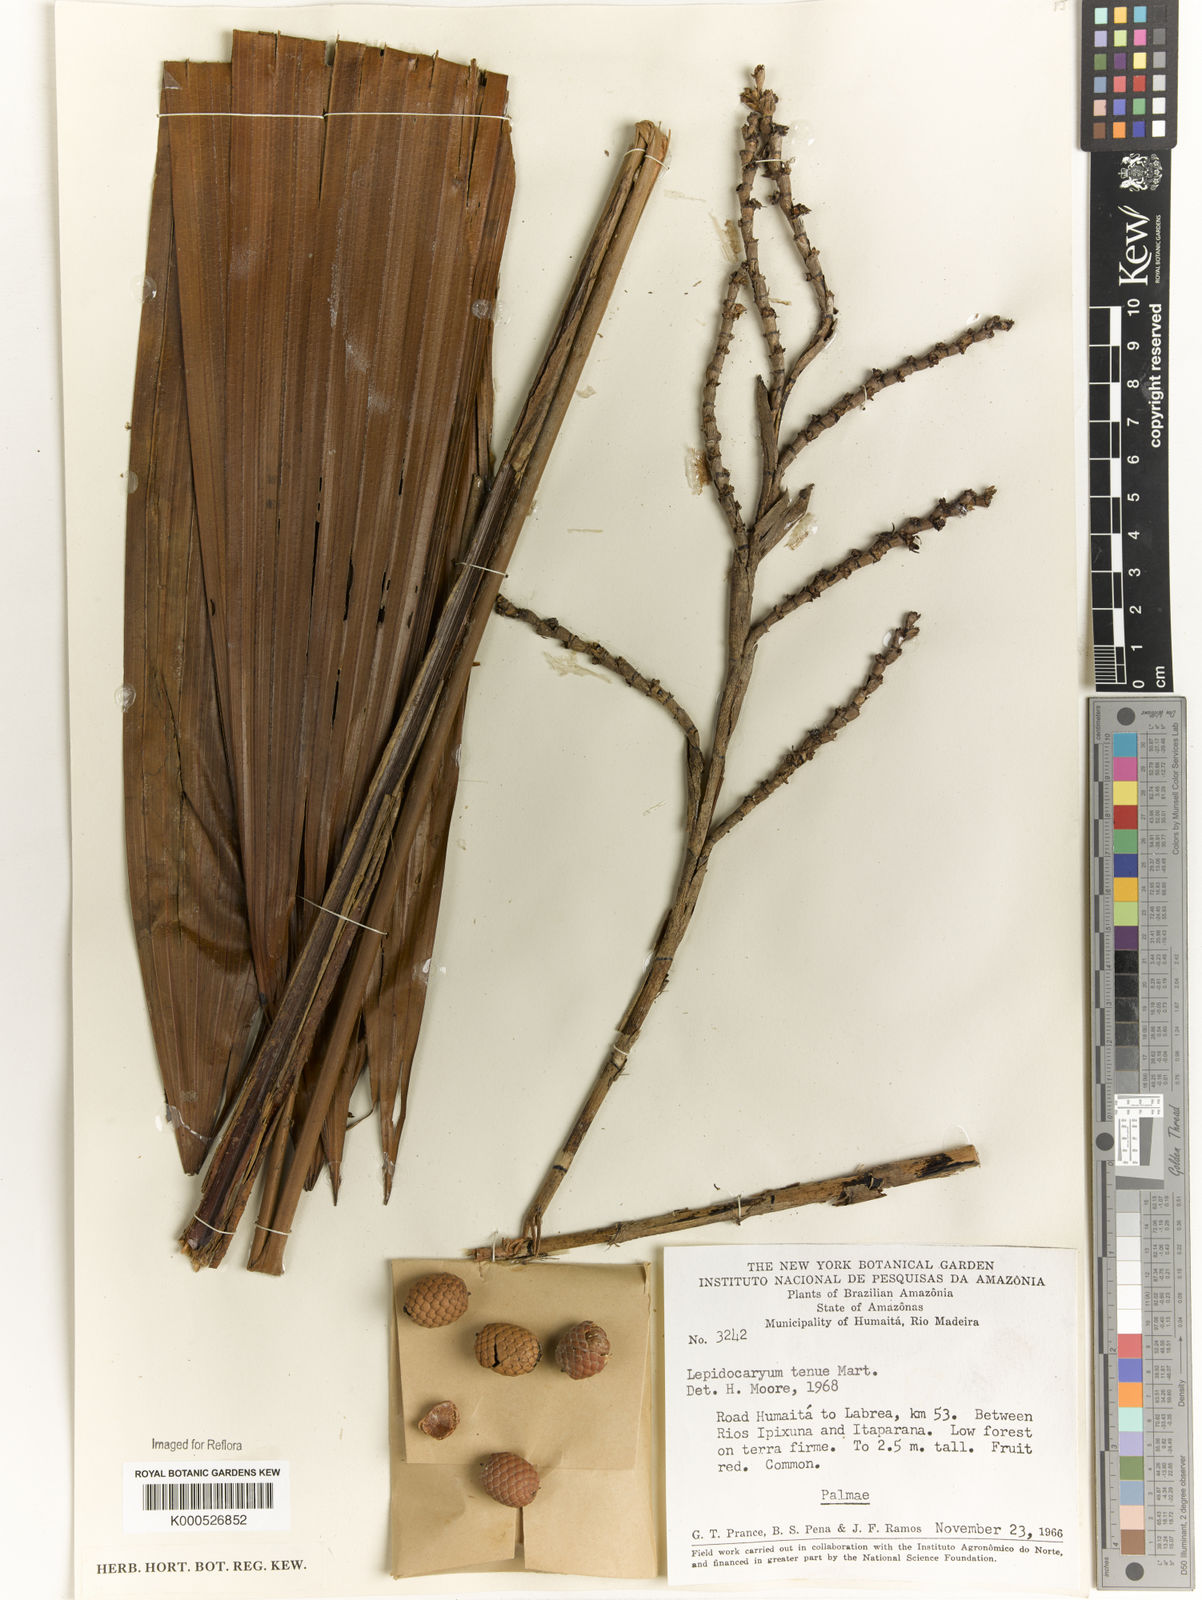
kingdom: Plantae
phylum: Tracheophyta
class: Liliopsida
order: Arecales
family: Arecaceae
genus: Lepidocaryum
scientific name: Lepidocaryum tenue
